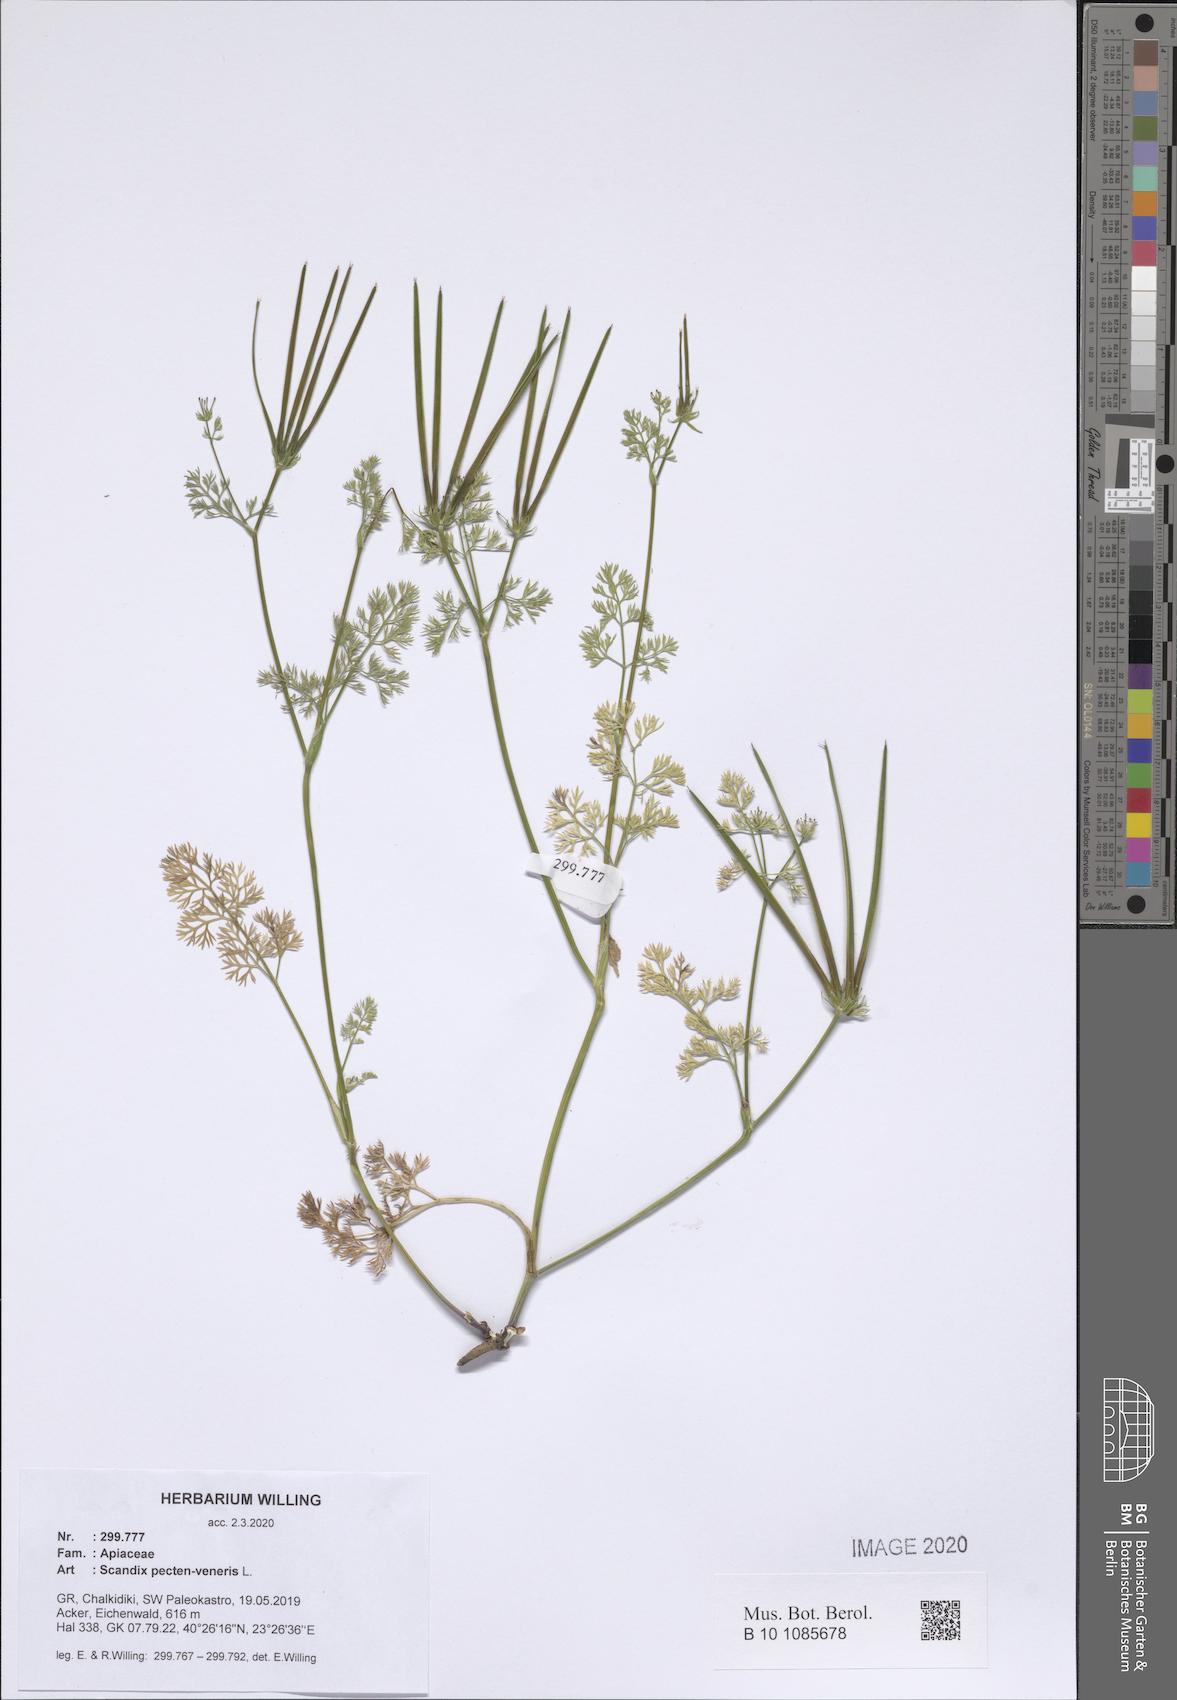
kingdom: Plantae
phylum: Tracheophyta
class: Magnoliopsida
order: Apiales
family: Apiaceae
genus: Scandix
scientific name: Scandix pecten-veneris
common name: Shepherd's-needle
